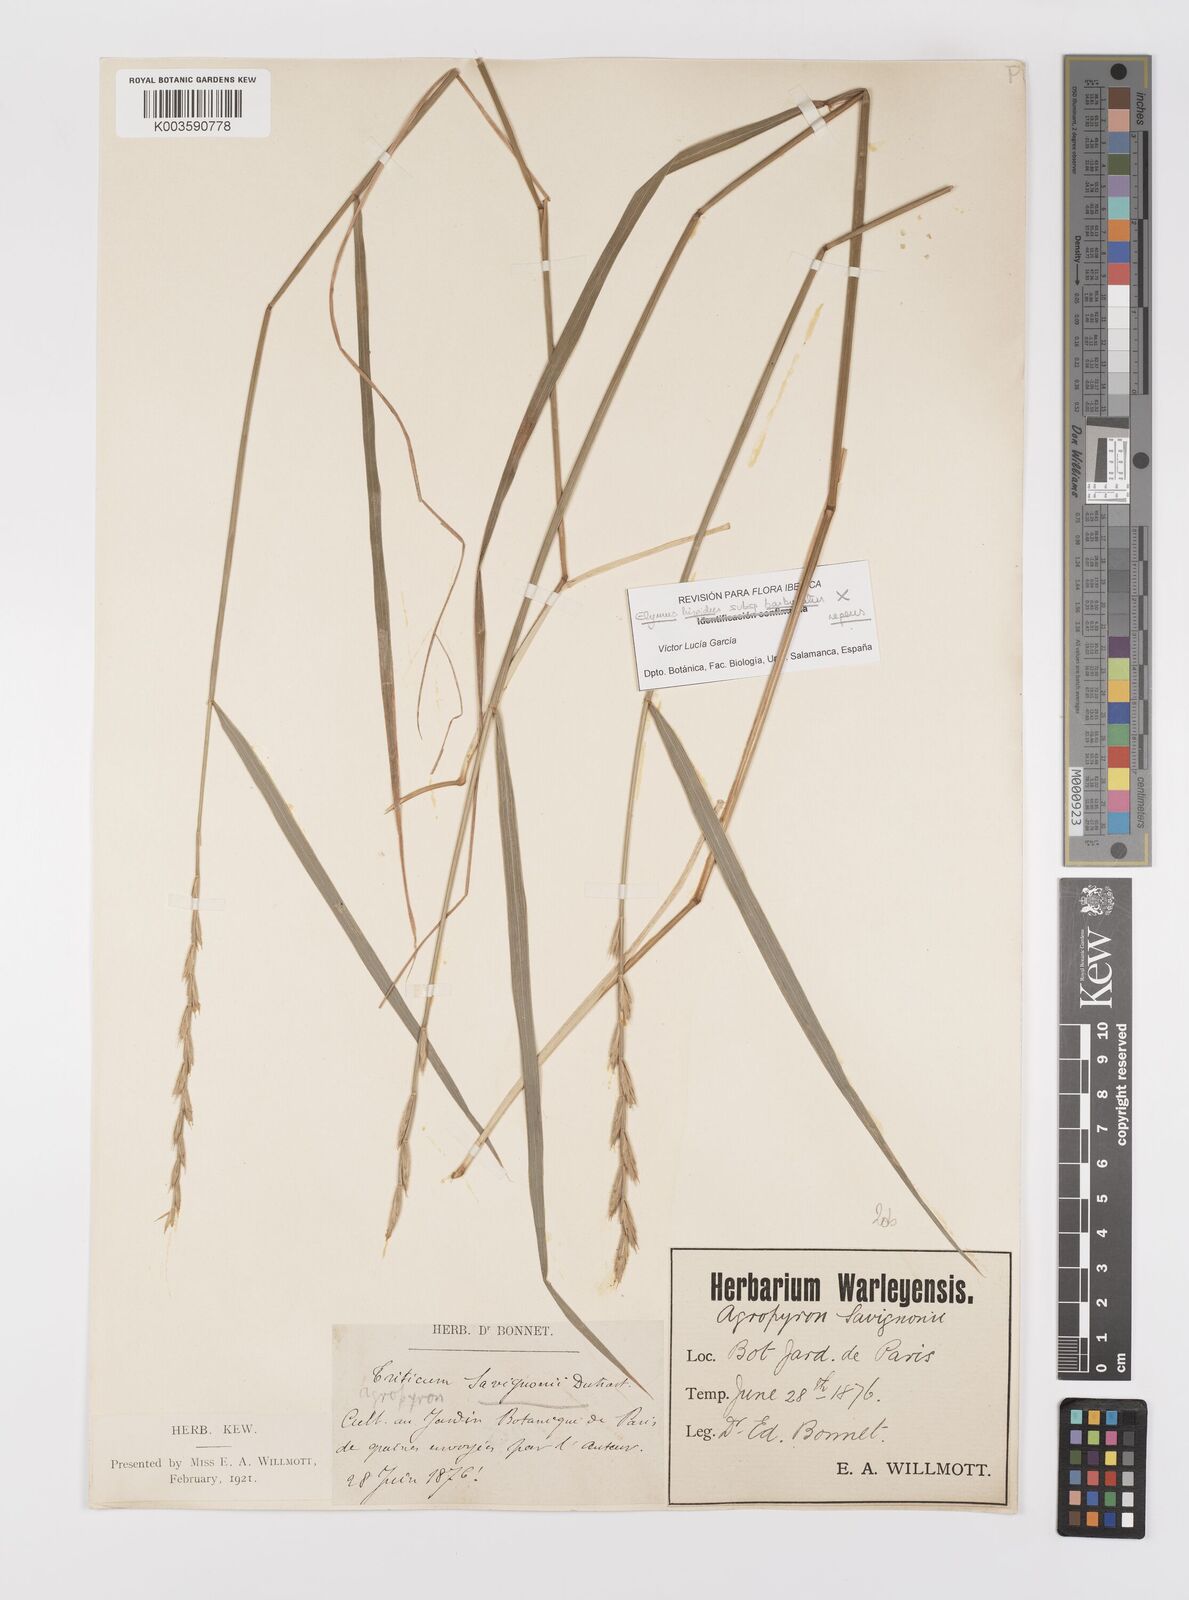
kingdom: Plantae
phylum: Tracheophyta
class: Liliopsida
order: Poales
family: Poaceae
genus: Thinopyrum
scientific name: Thinopyrum intermedium
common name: Intermediate wheatgrass
